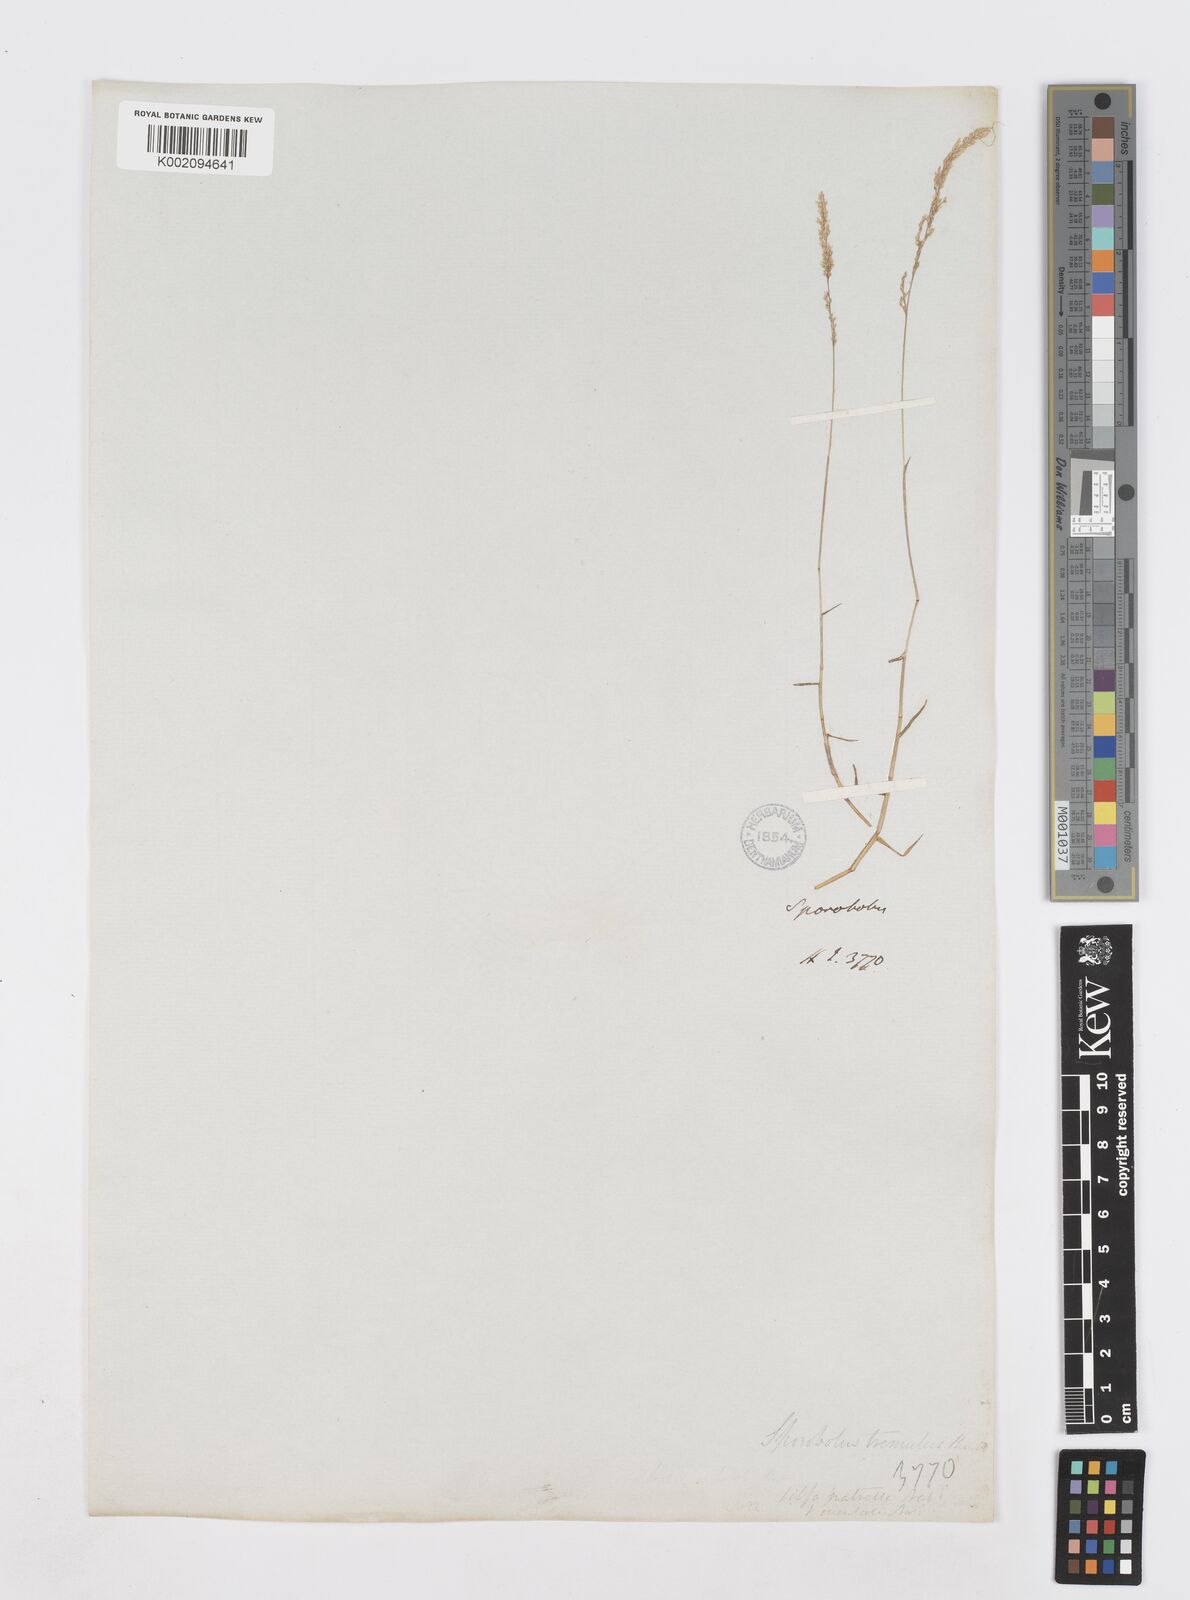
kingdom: Plantae
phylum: Tracheophyta
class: Liliopsida
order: Poales
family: Poaceae
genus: Sporobolus
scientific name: Sporobolus virginicus
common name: Beach dropseed
